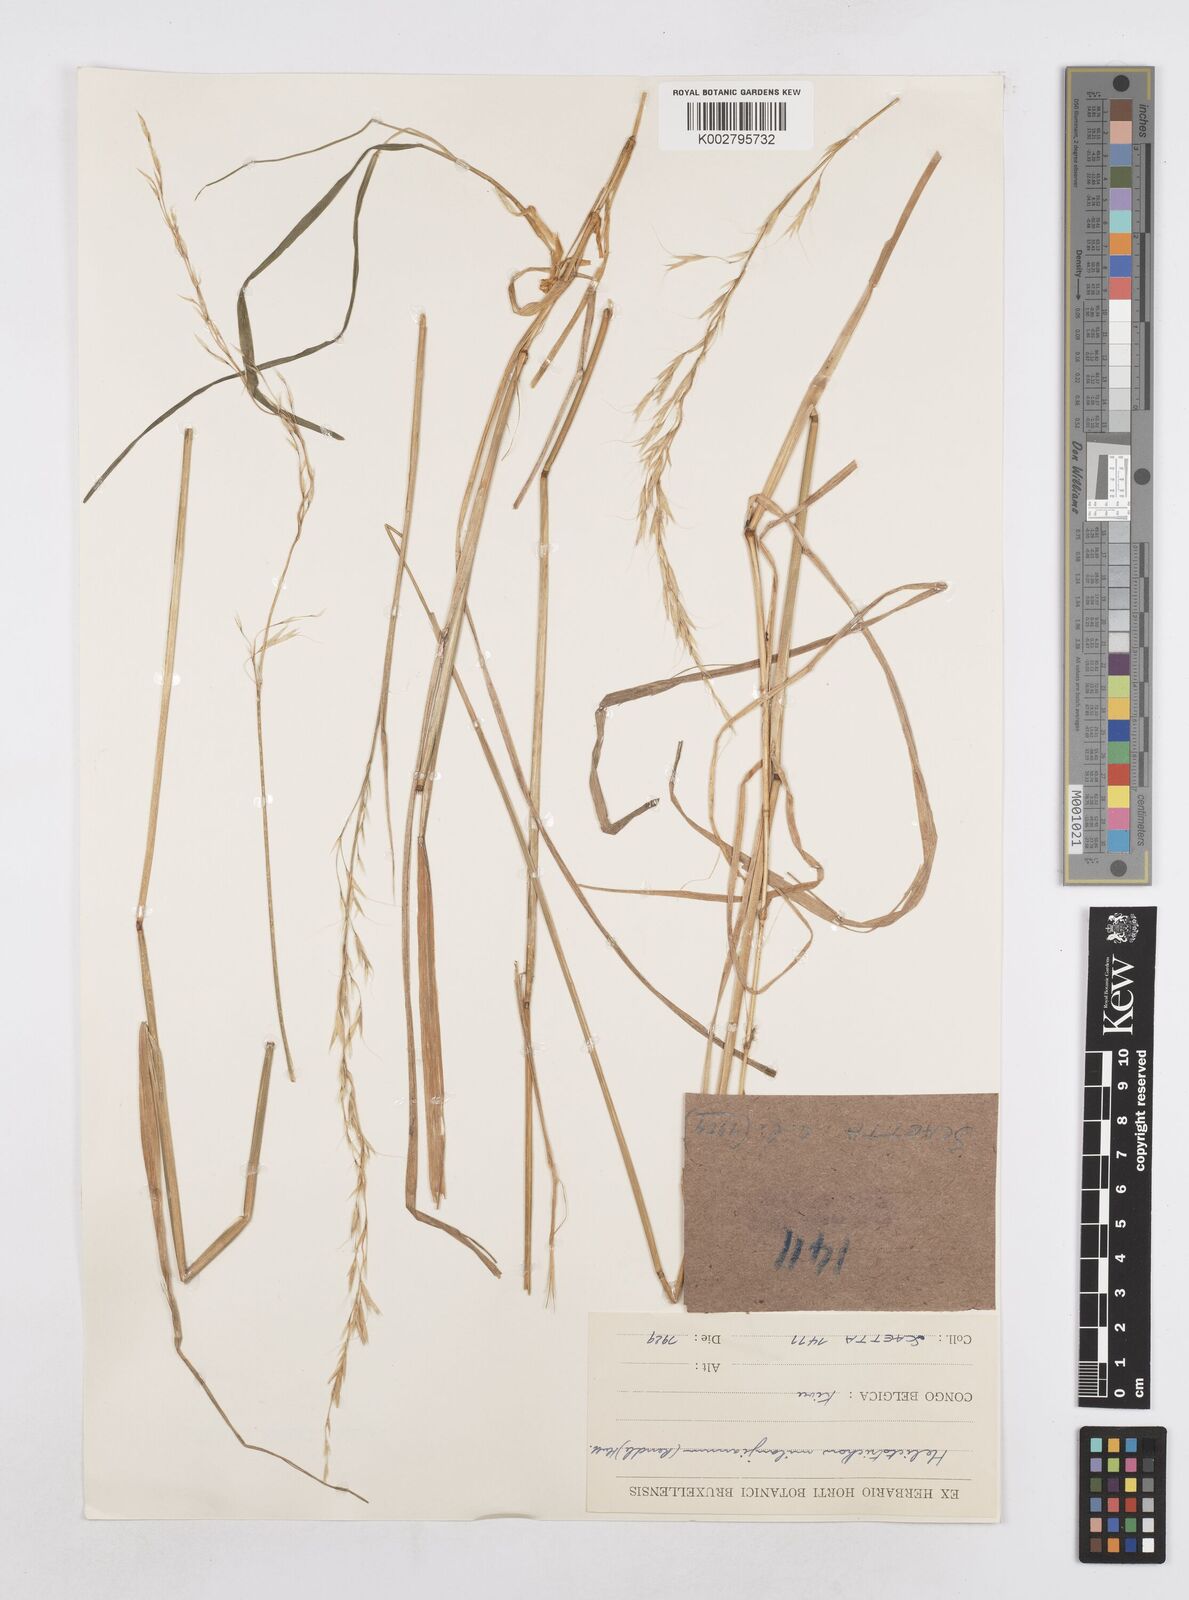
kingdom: Plantae
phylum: Tracheophyta
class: Liliopsida
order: Poales
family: Poaceae
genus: Trisetopsis
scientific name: Trisetopsis milanjiana
